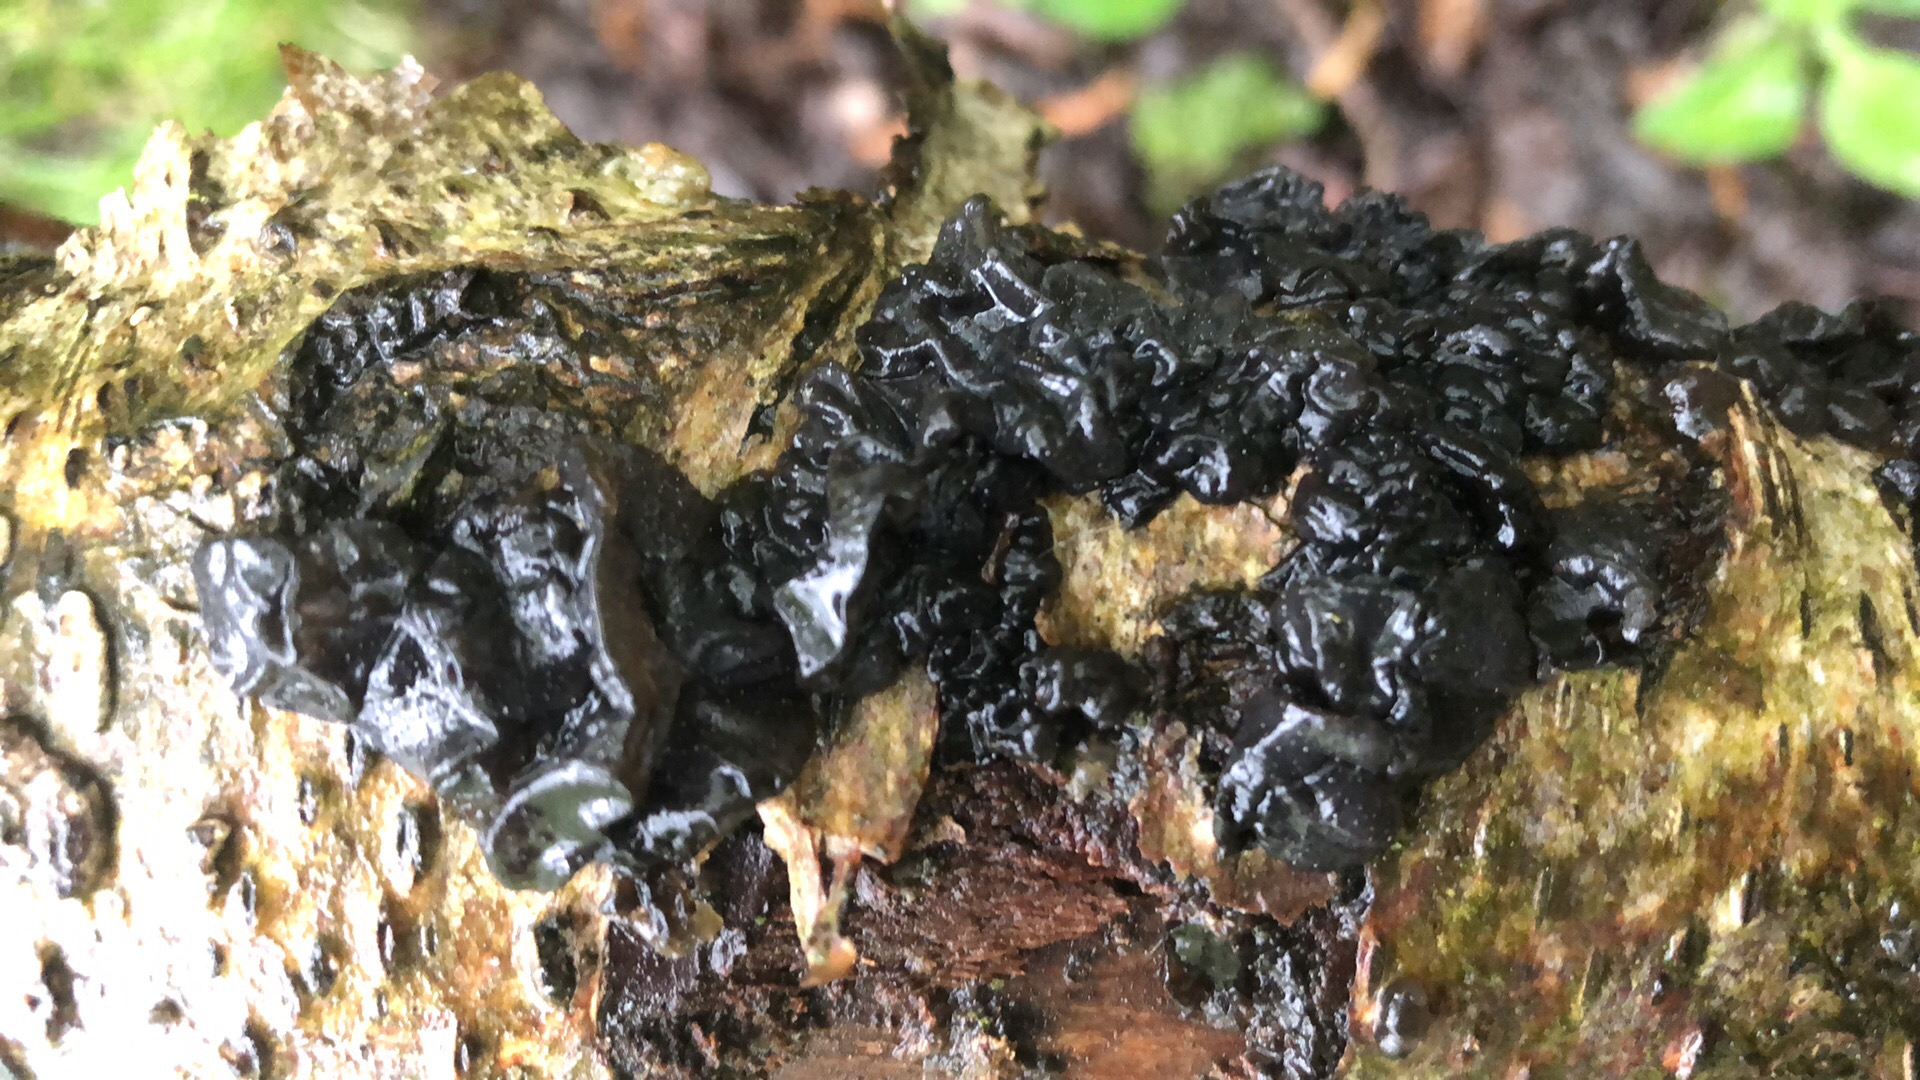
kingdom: Fungi
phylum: Basidiomycota
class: Agaricomycetes
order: Auriculariales
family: Auriculariaceae
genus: Exidia
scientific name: Exidia nigricans
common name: almindelig bævretop
